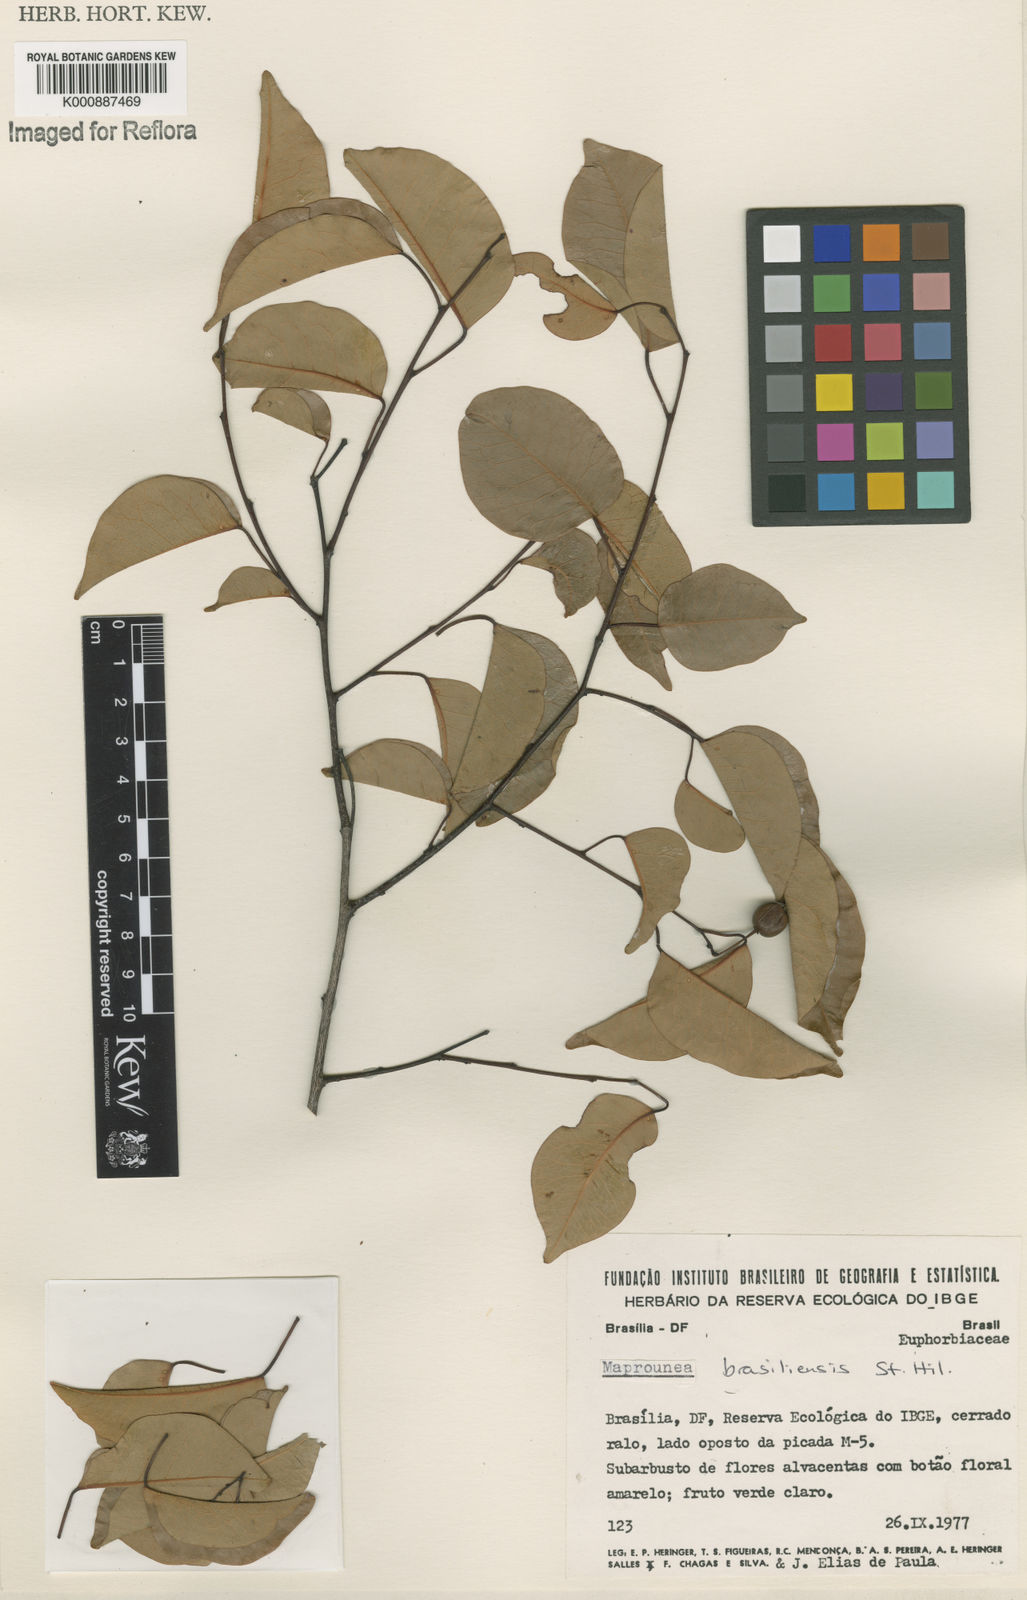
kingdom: Plantae
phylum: Tracheophyta
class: Magnoliopsida
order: Malpighiales
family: Euphorbiaceae
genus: Maprounea
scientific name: Maprounea brasiliensis
